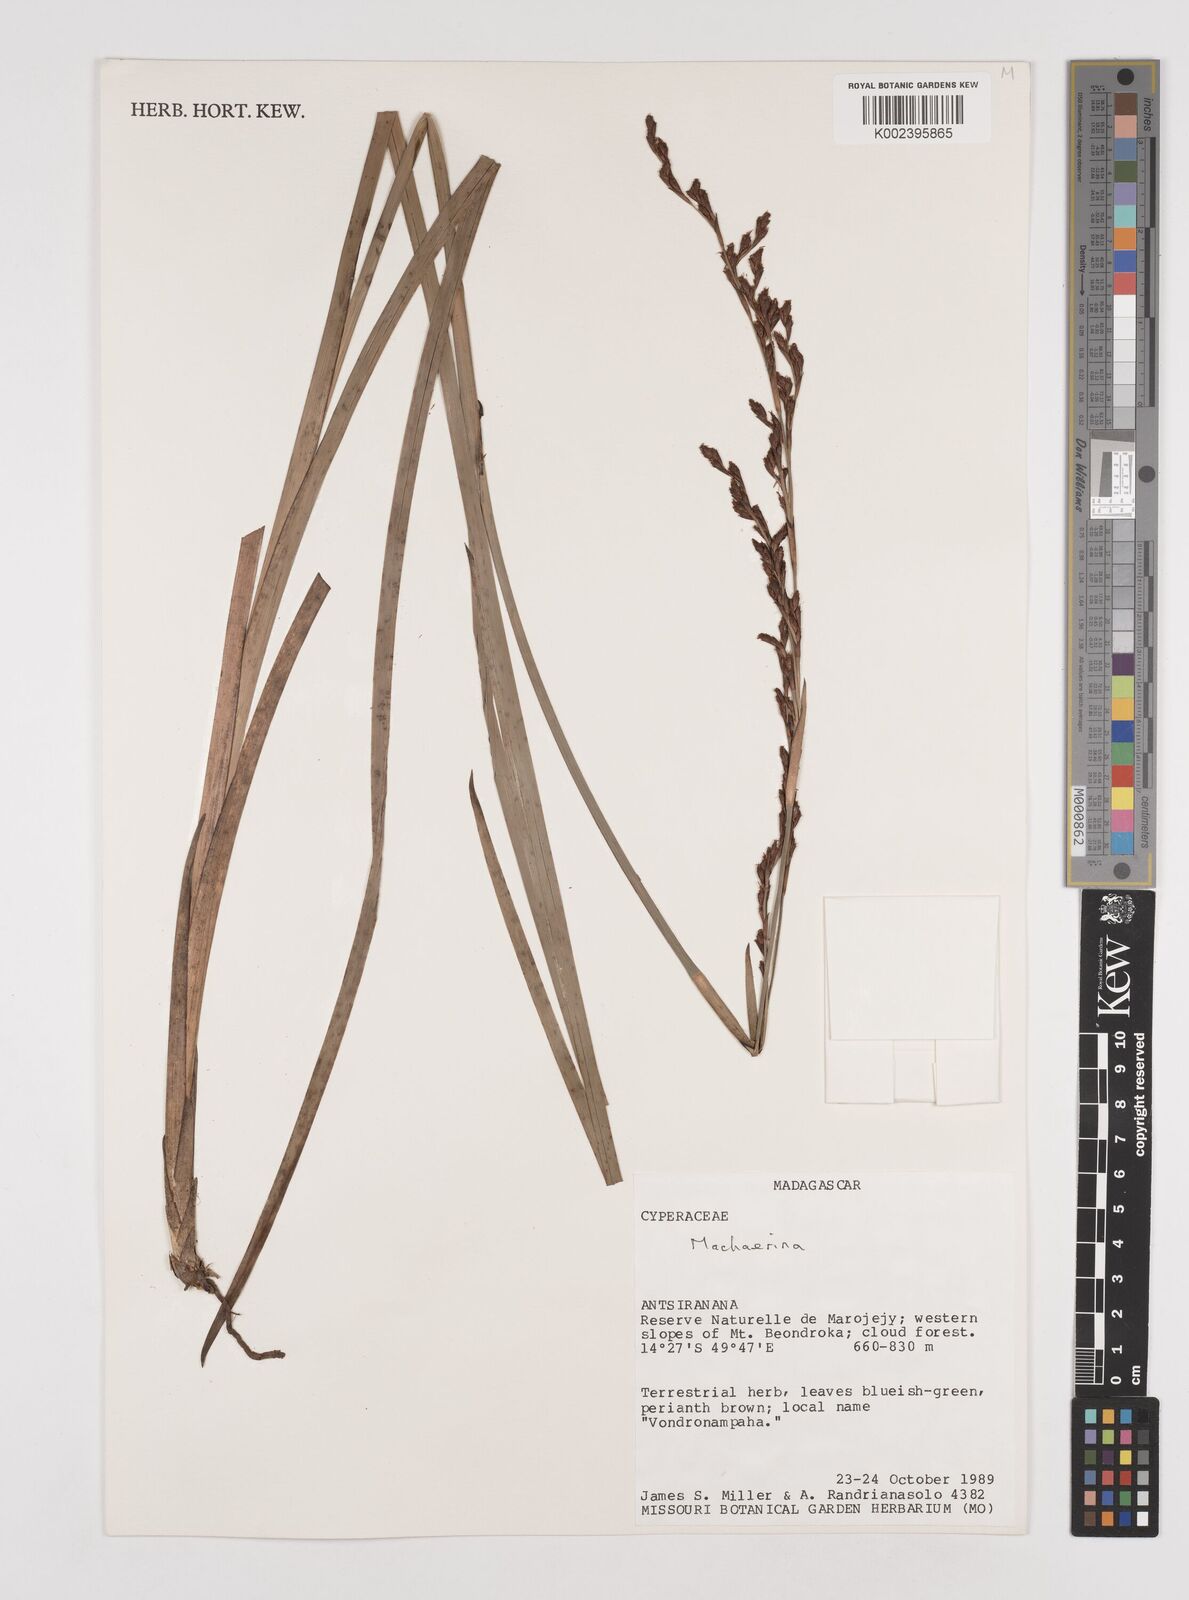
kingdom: Plantae
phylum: Tracheophyta
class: Liliopsida
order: Poales
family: Cyperaceae
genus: Machaerina
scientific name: Machaerina
